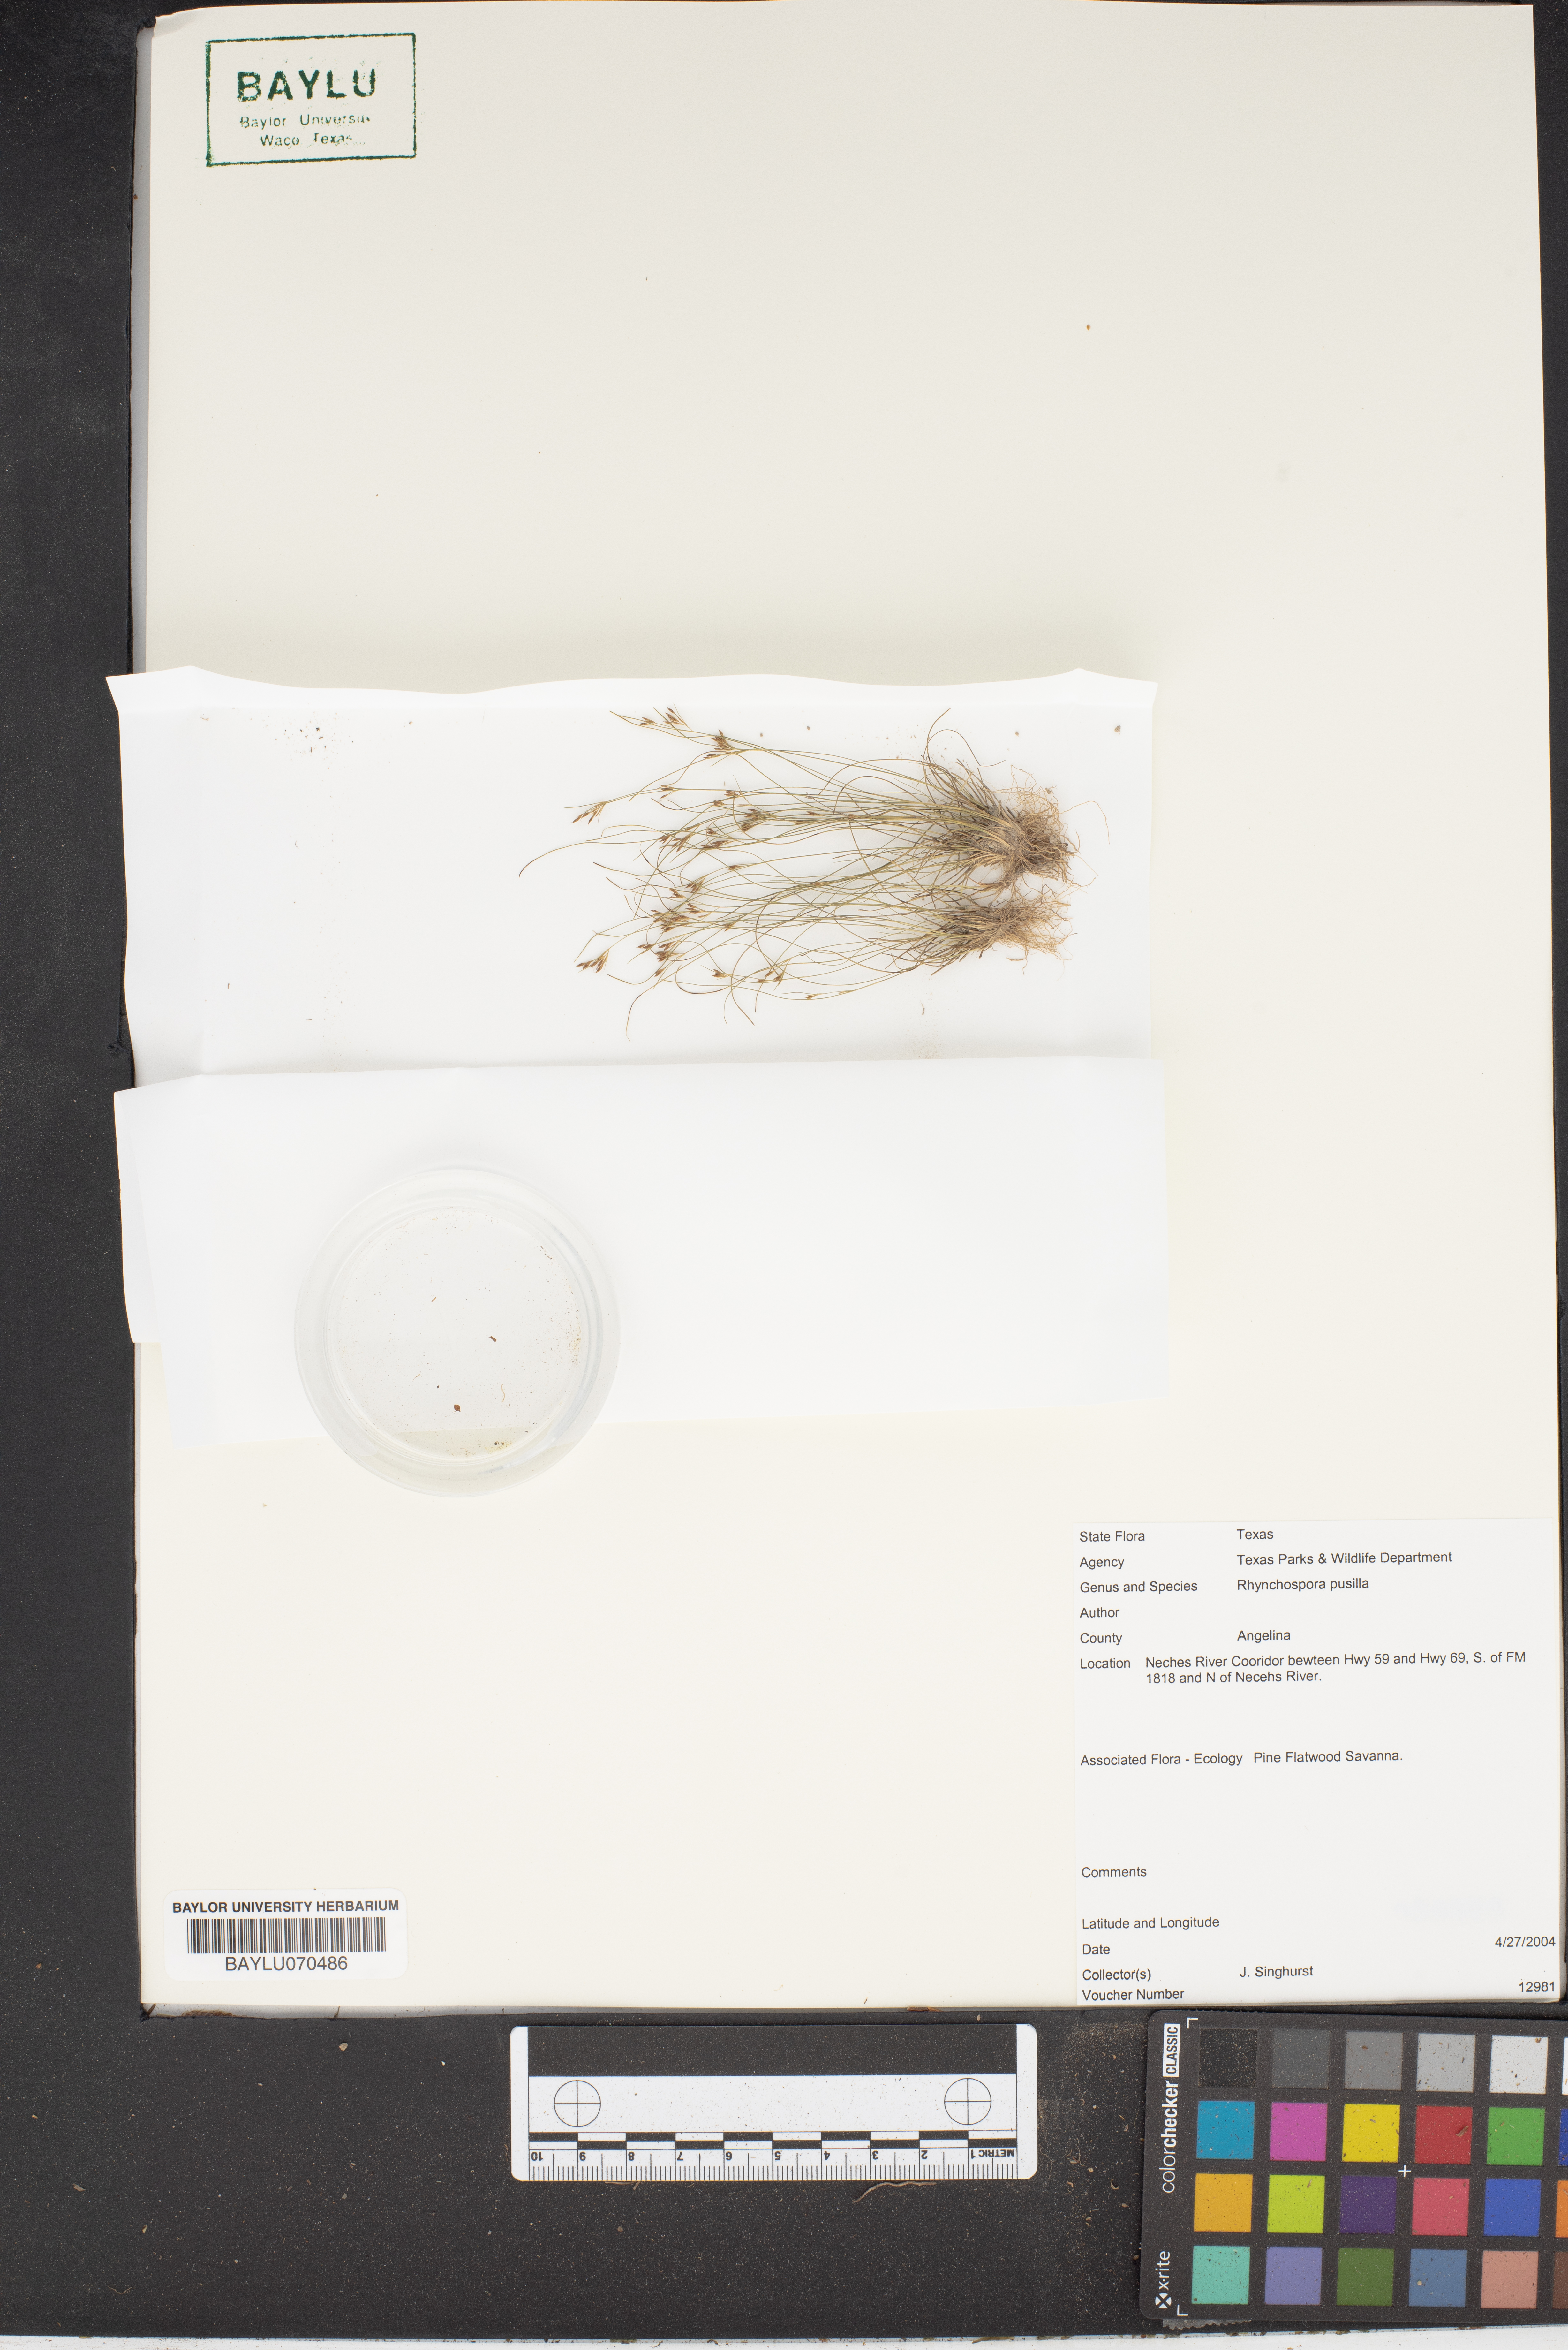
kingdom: Plantae
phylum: Tracheophyta
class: Liliopsida
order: Poales
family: Cyperaceae
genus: Rhynchospora
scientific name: Rhynchospora pusilla
